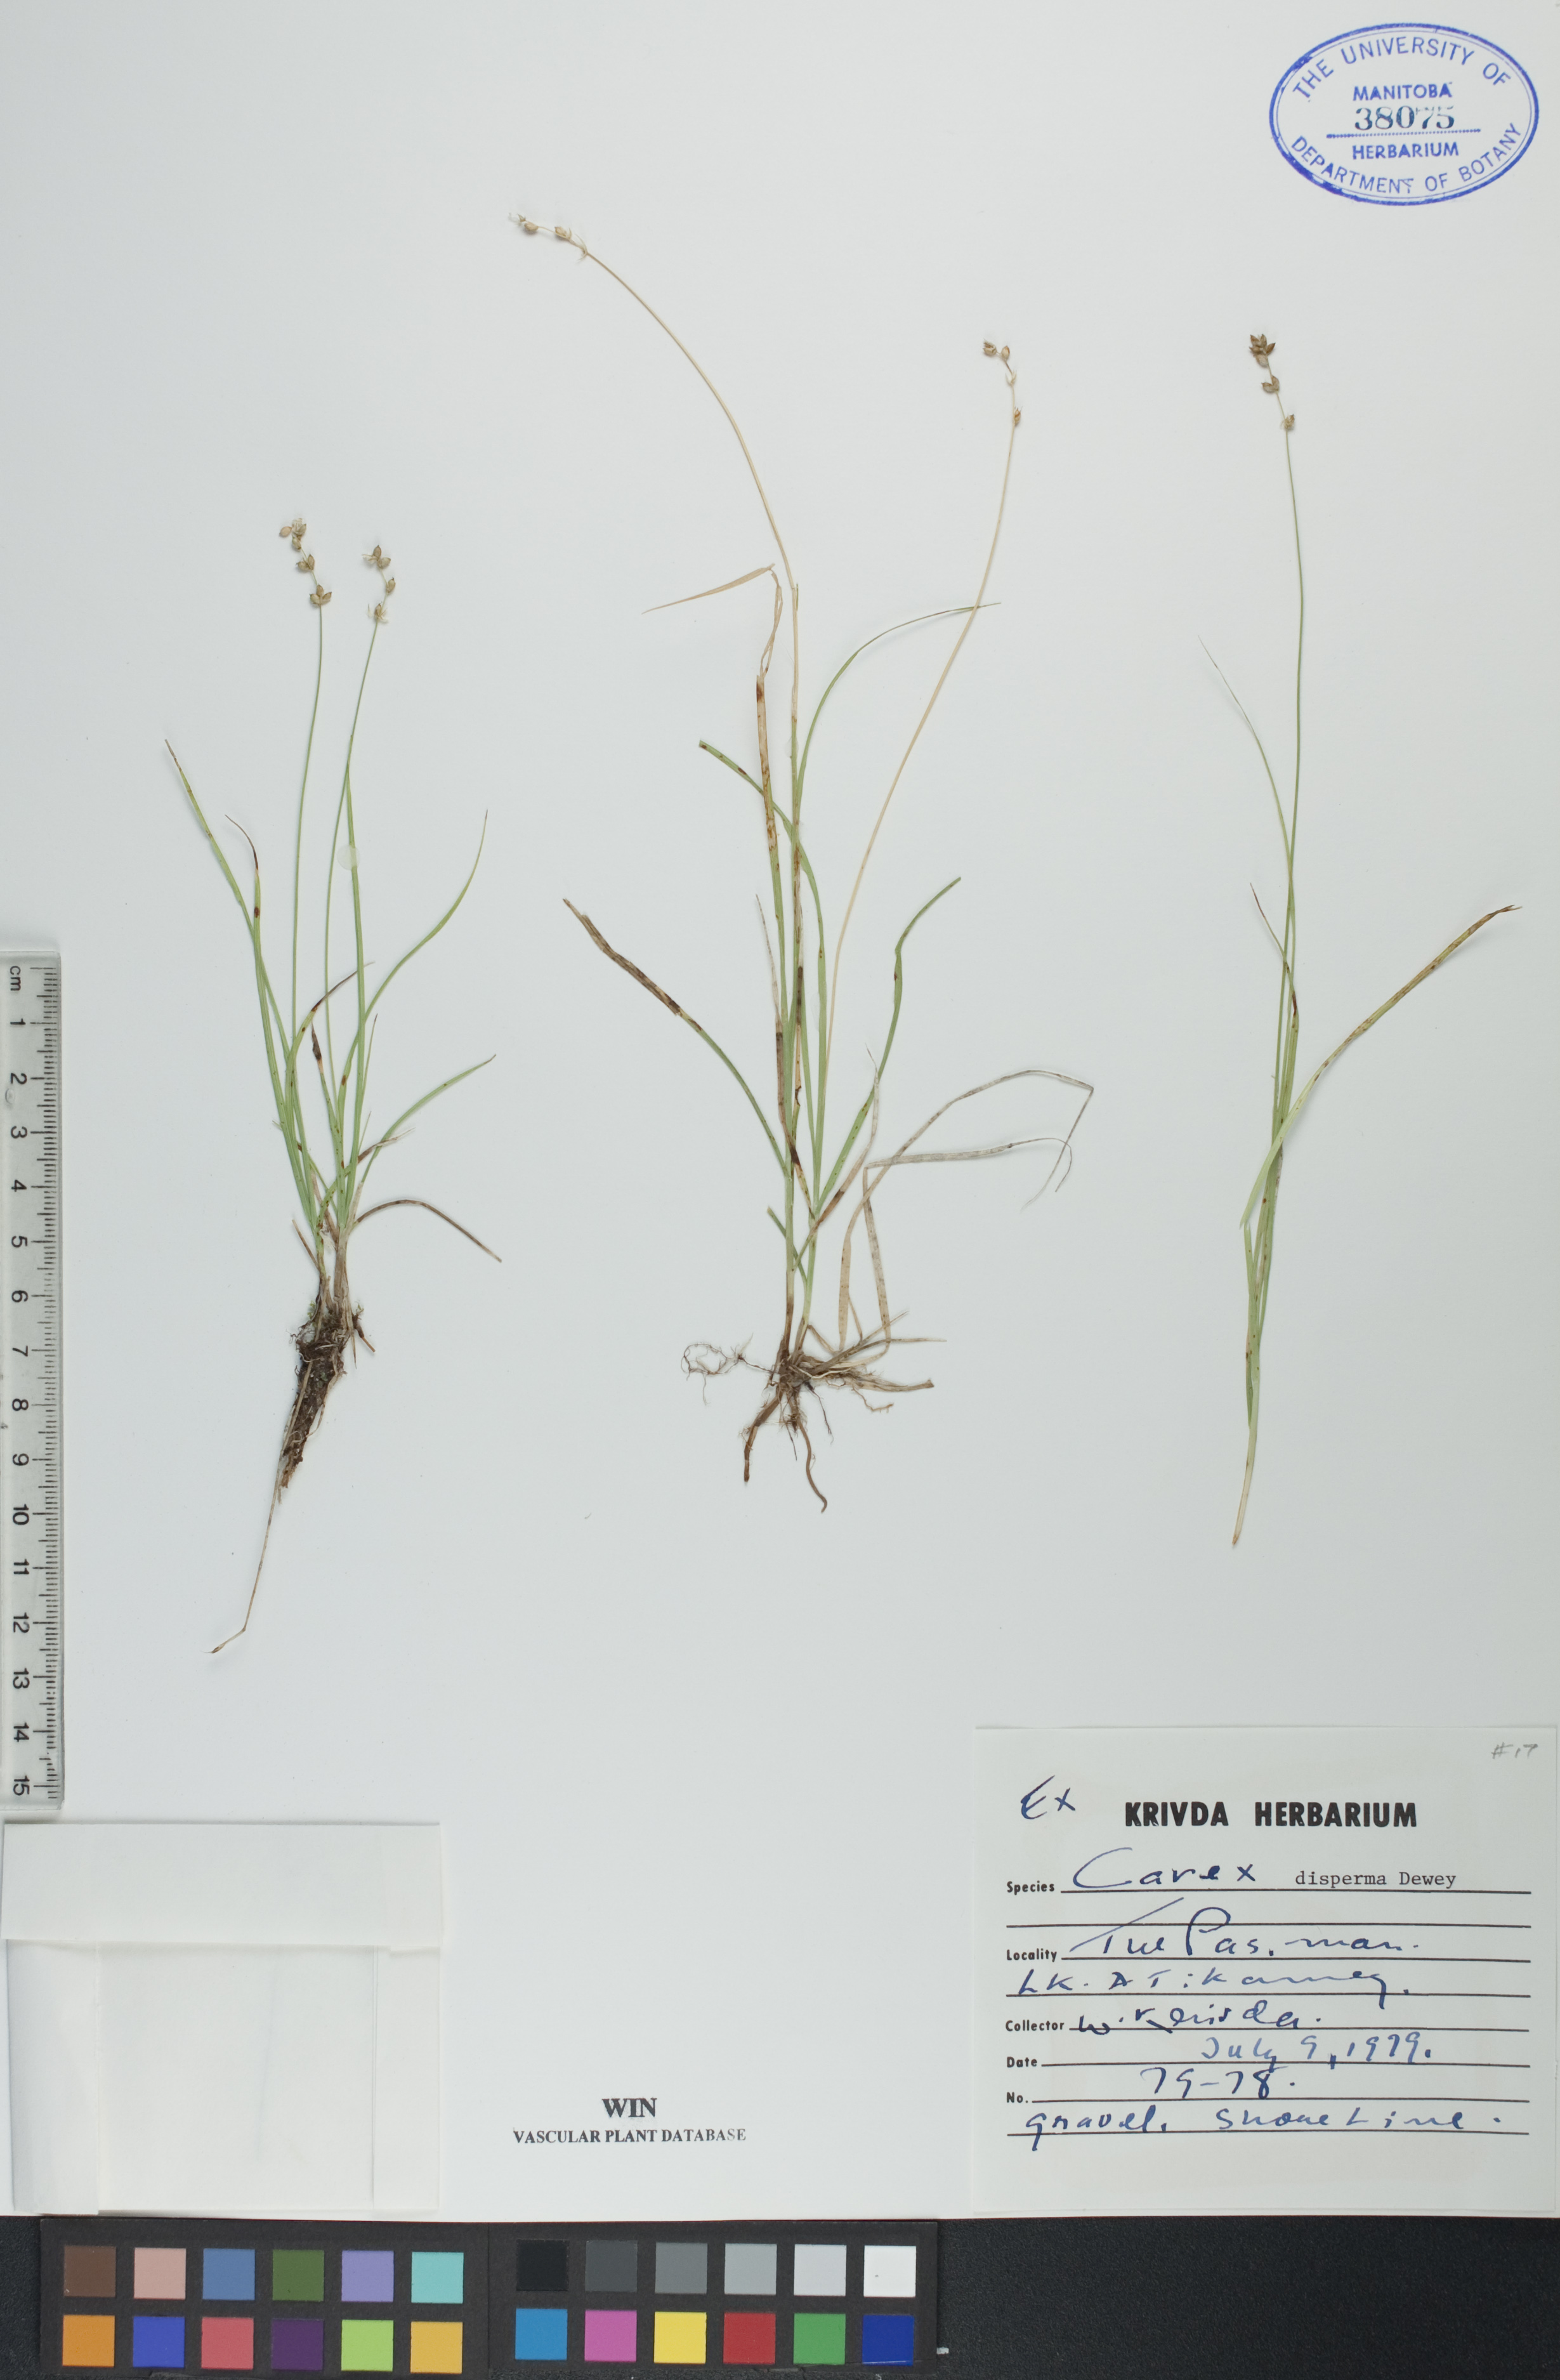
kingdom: Plantae
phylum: Tracheophyta
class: Liliopsida
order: Poales
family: Cyperaceae
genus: Carex
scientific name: Carex disperma
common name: Short-leaved sedge
